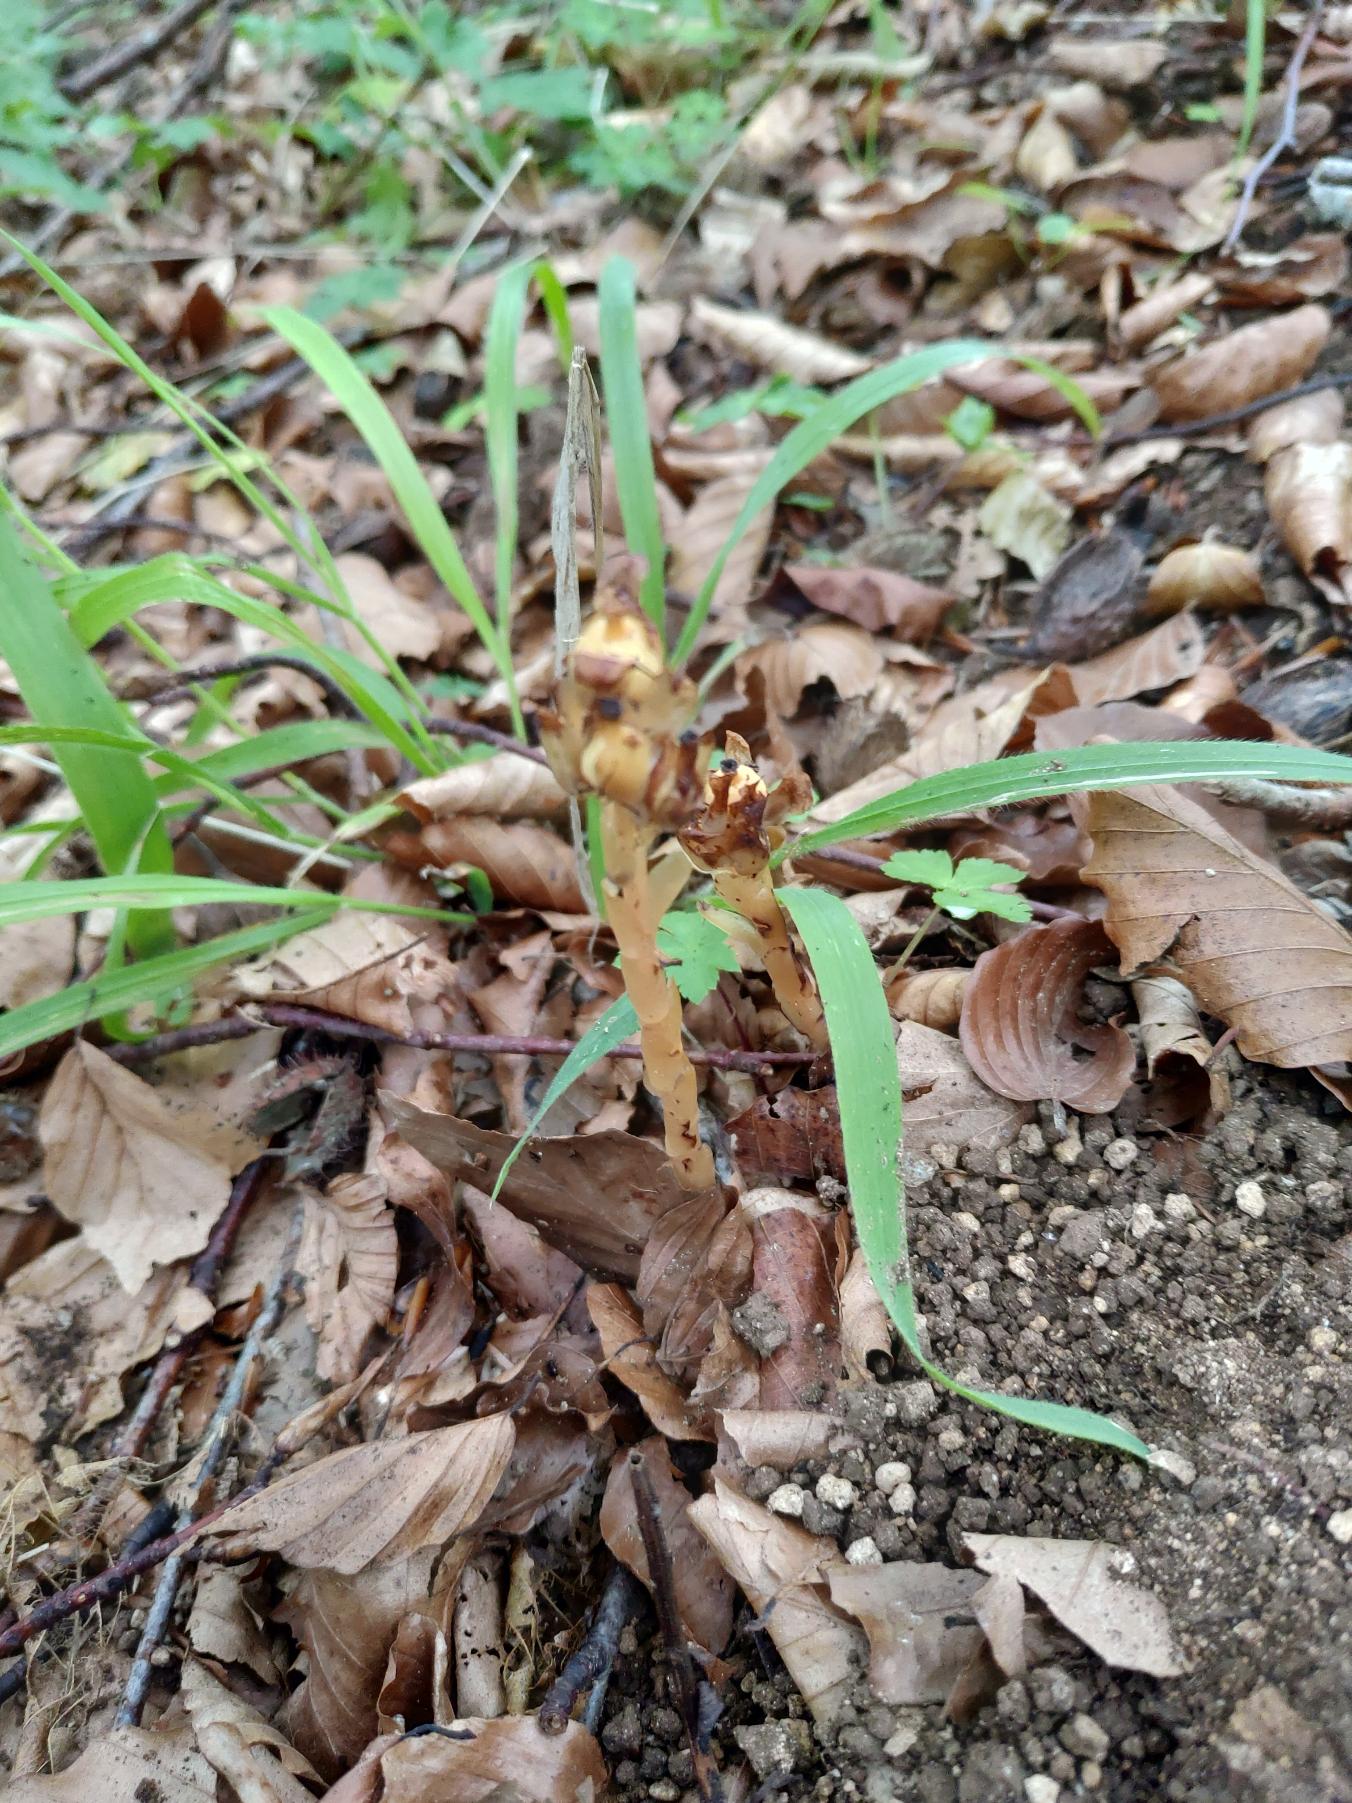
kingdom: Plantae
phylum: Tracheophyta
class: Magnoliopsida
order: Ericales
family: Ericaceae
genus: Hypopitys
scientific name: Hypopitys hypophegea
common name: Glat snylterod
